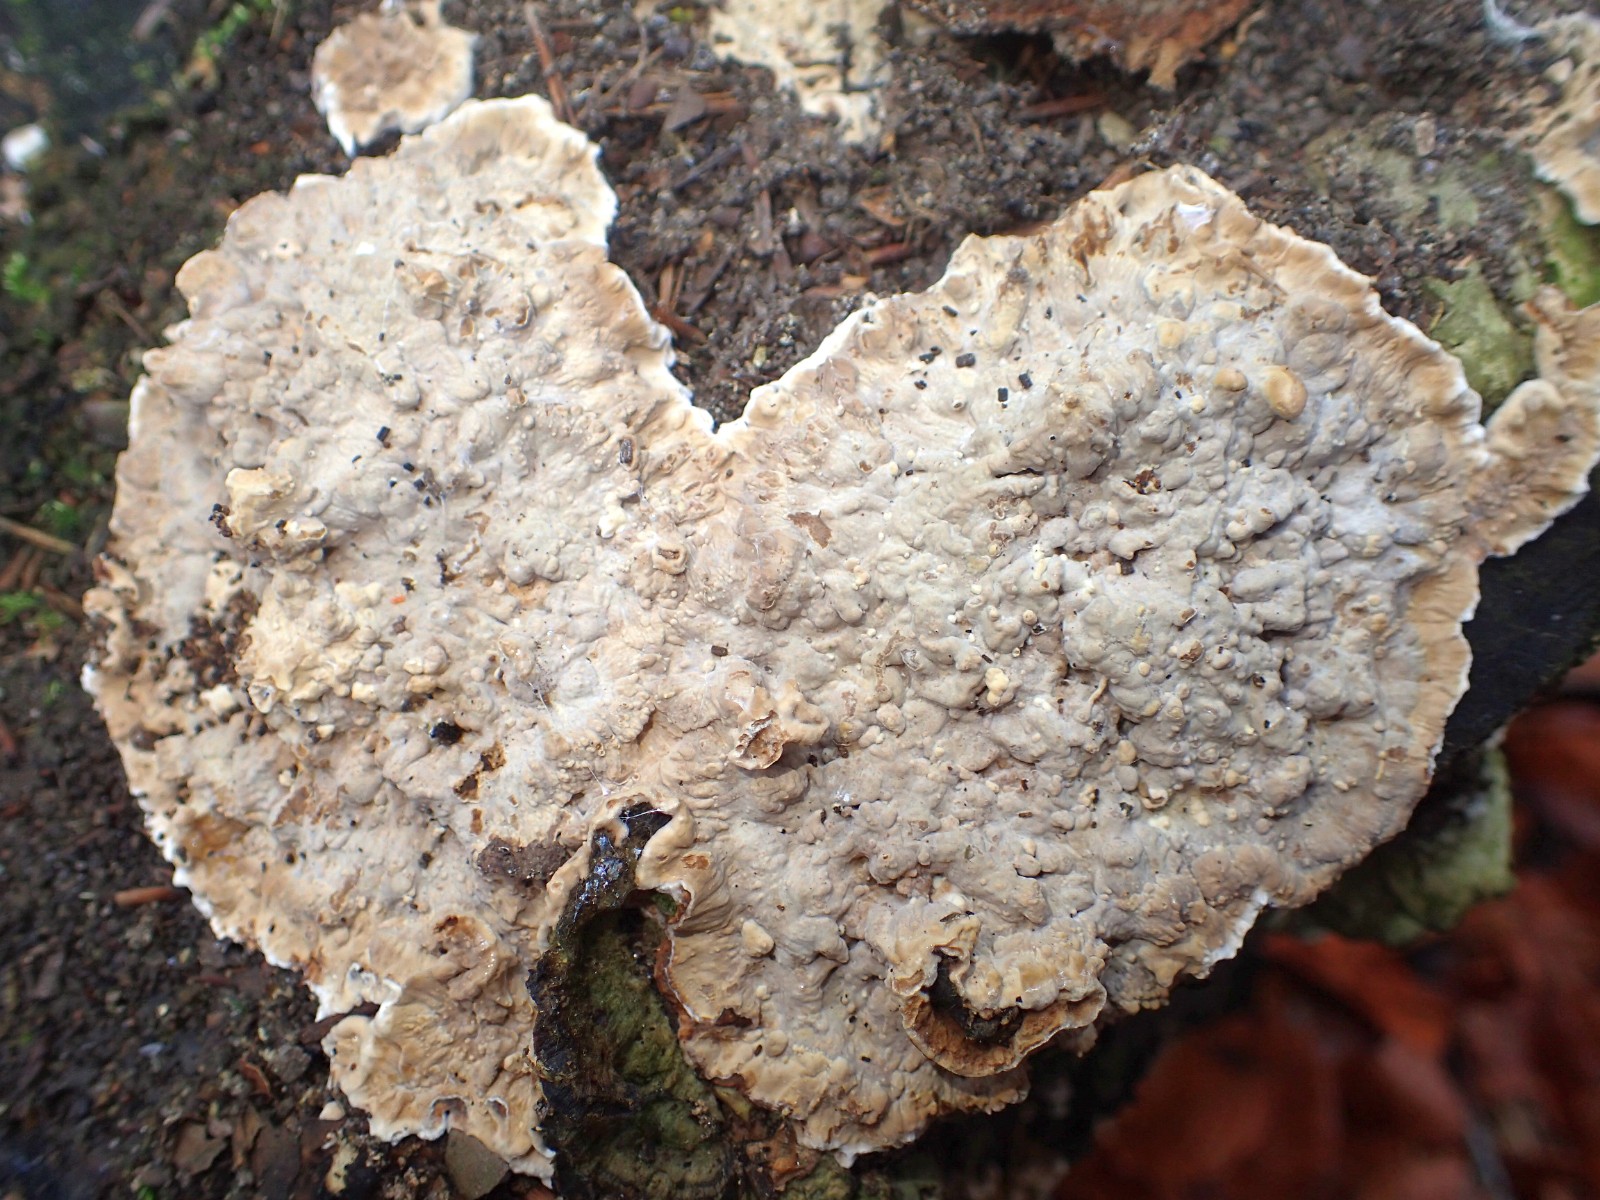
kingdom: Fungi
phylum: Basidiomycota
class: Agaricomycetes
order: Corticiales
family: Corticiaceae
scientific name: Corticiaceae
